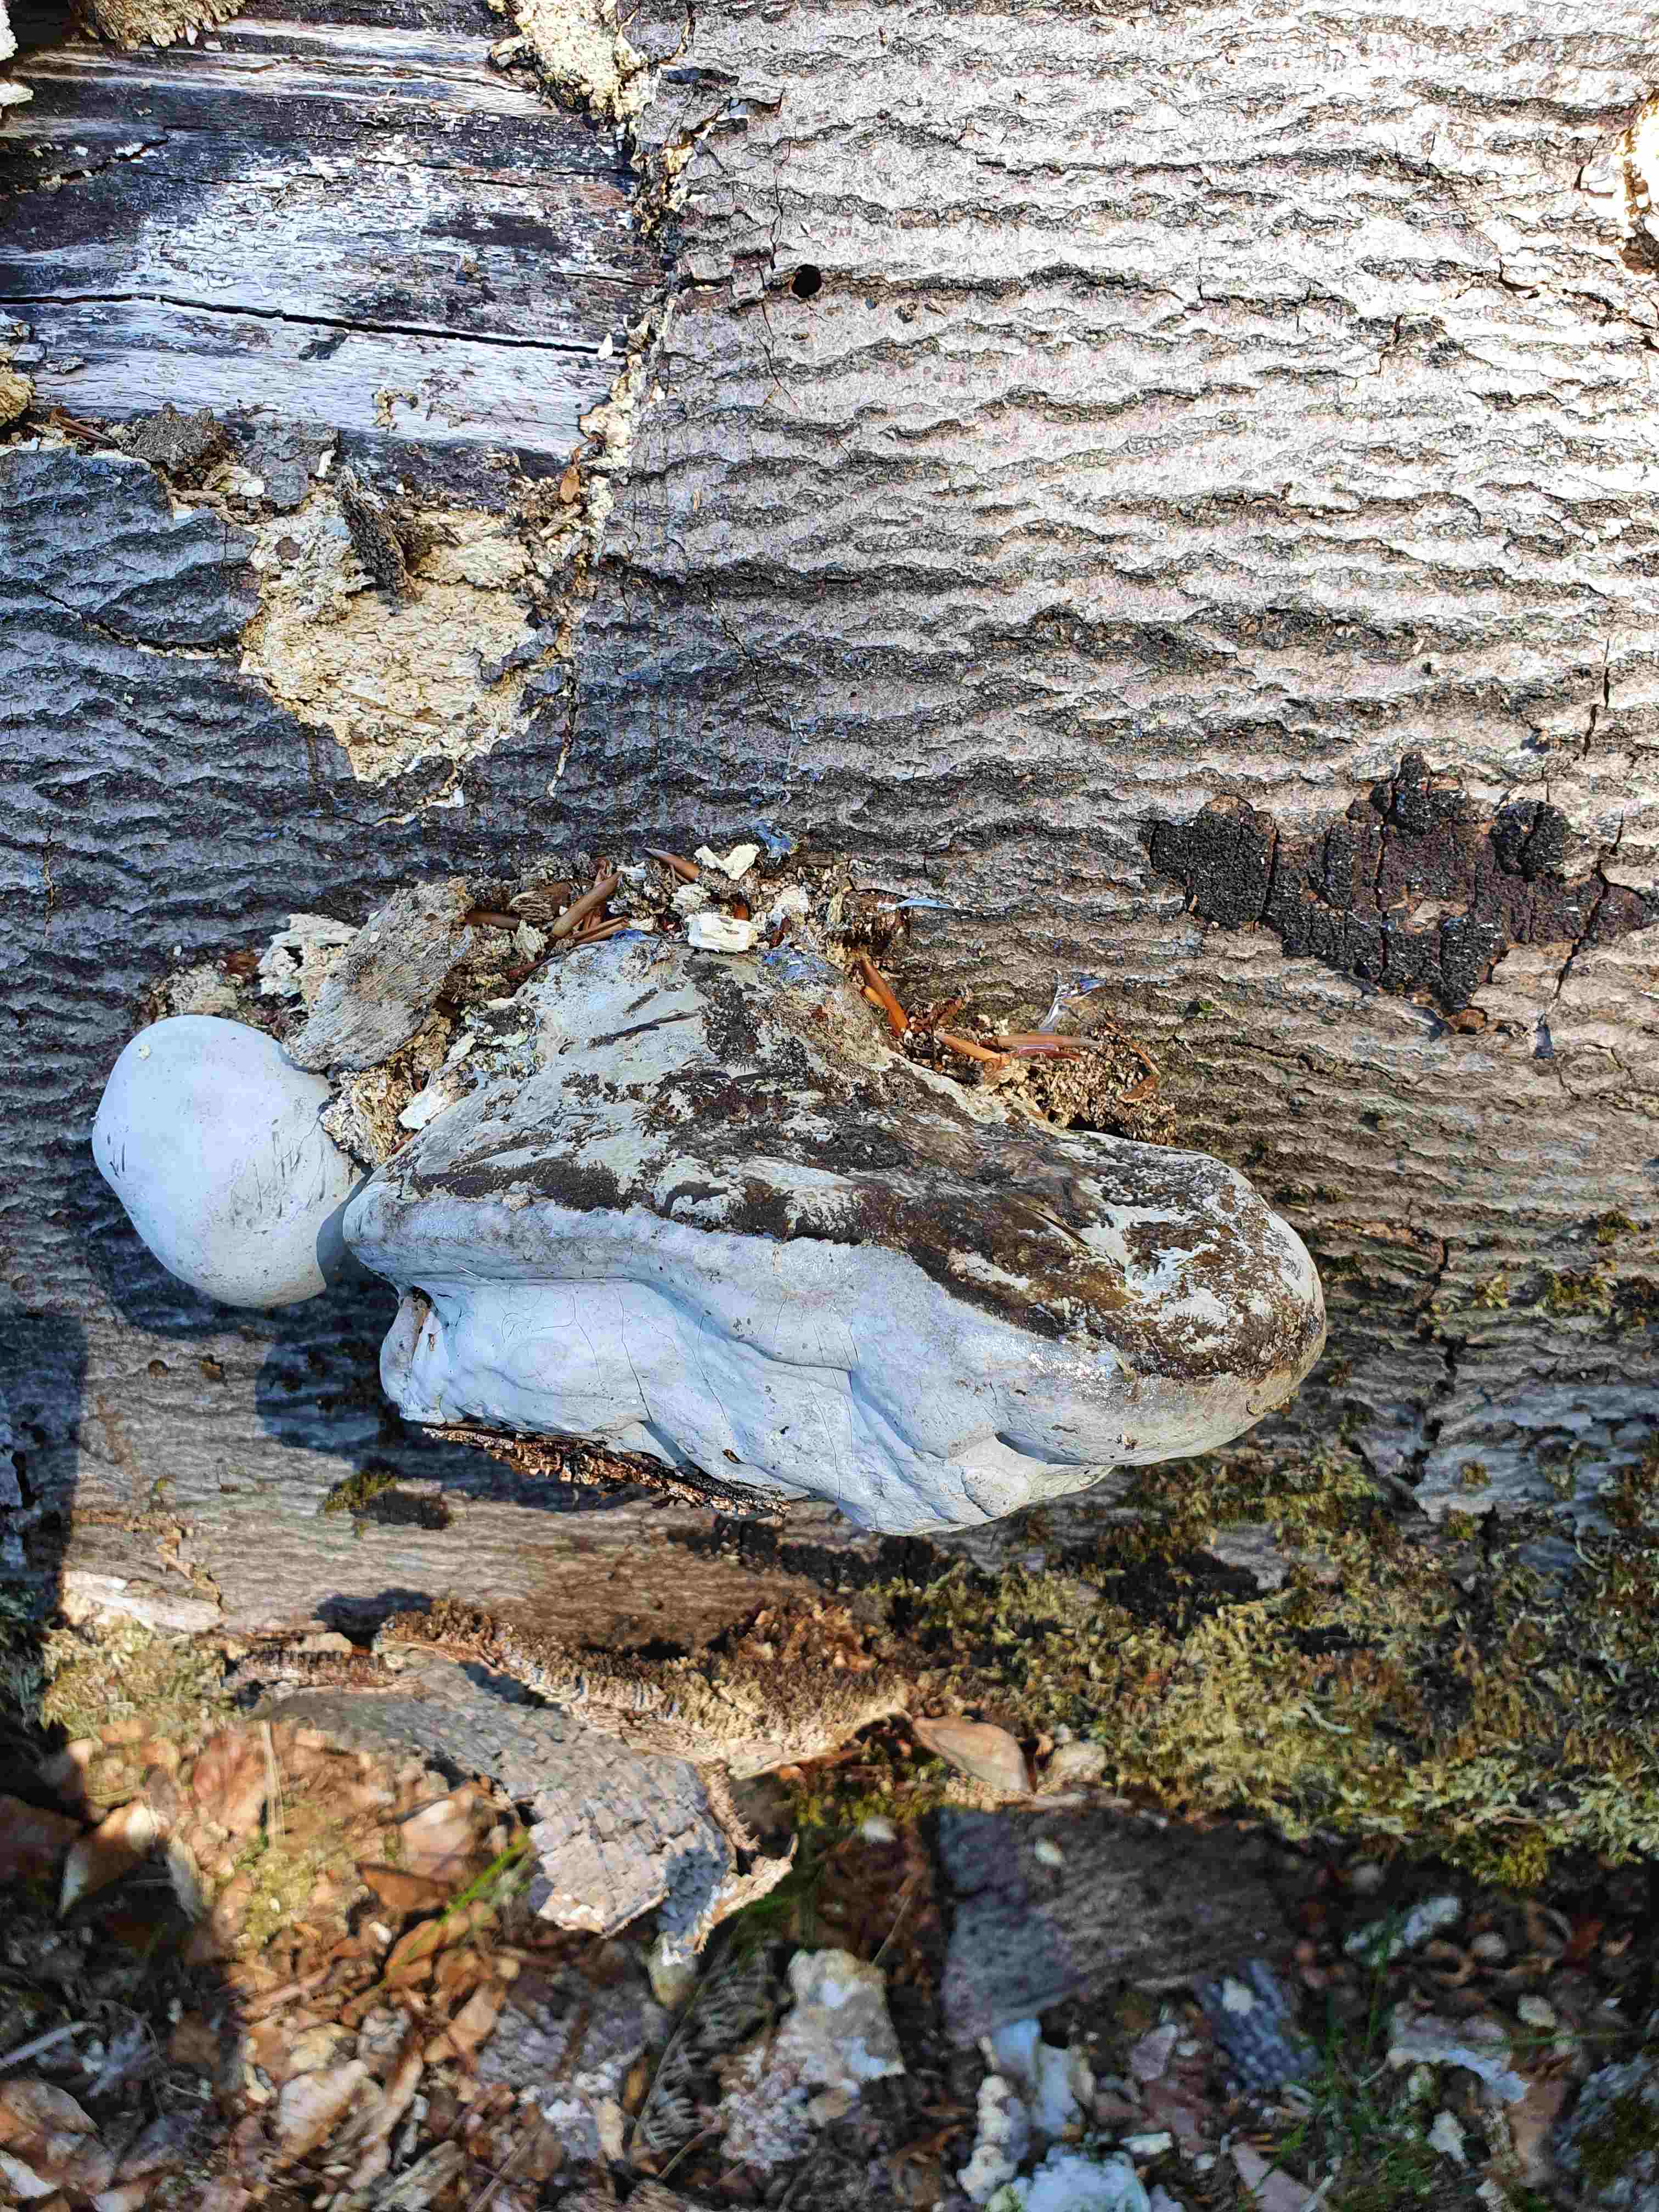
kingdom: Fungi
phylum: Basidiomycota
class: Agaricomycetes
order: Polyporales
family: Polyporaceae
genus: Fomes
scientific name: Fomes fomentarius
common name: tøndersvamp
